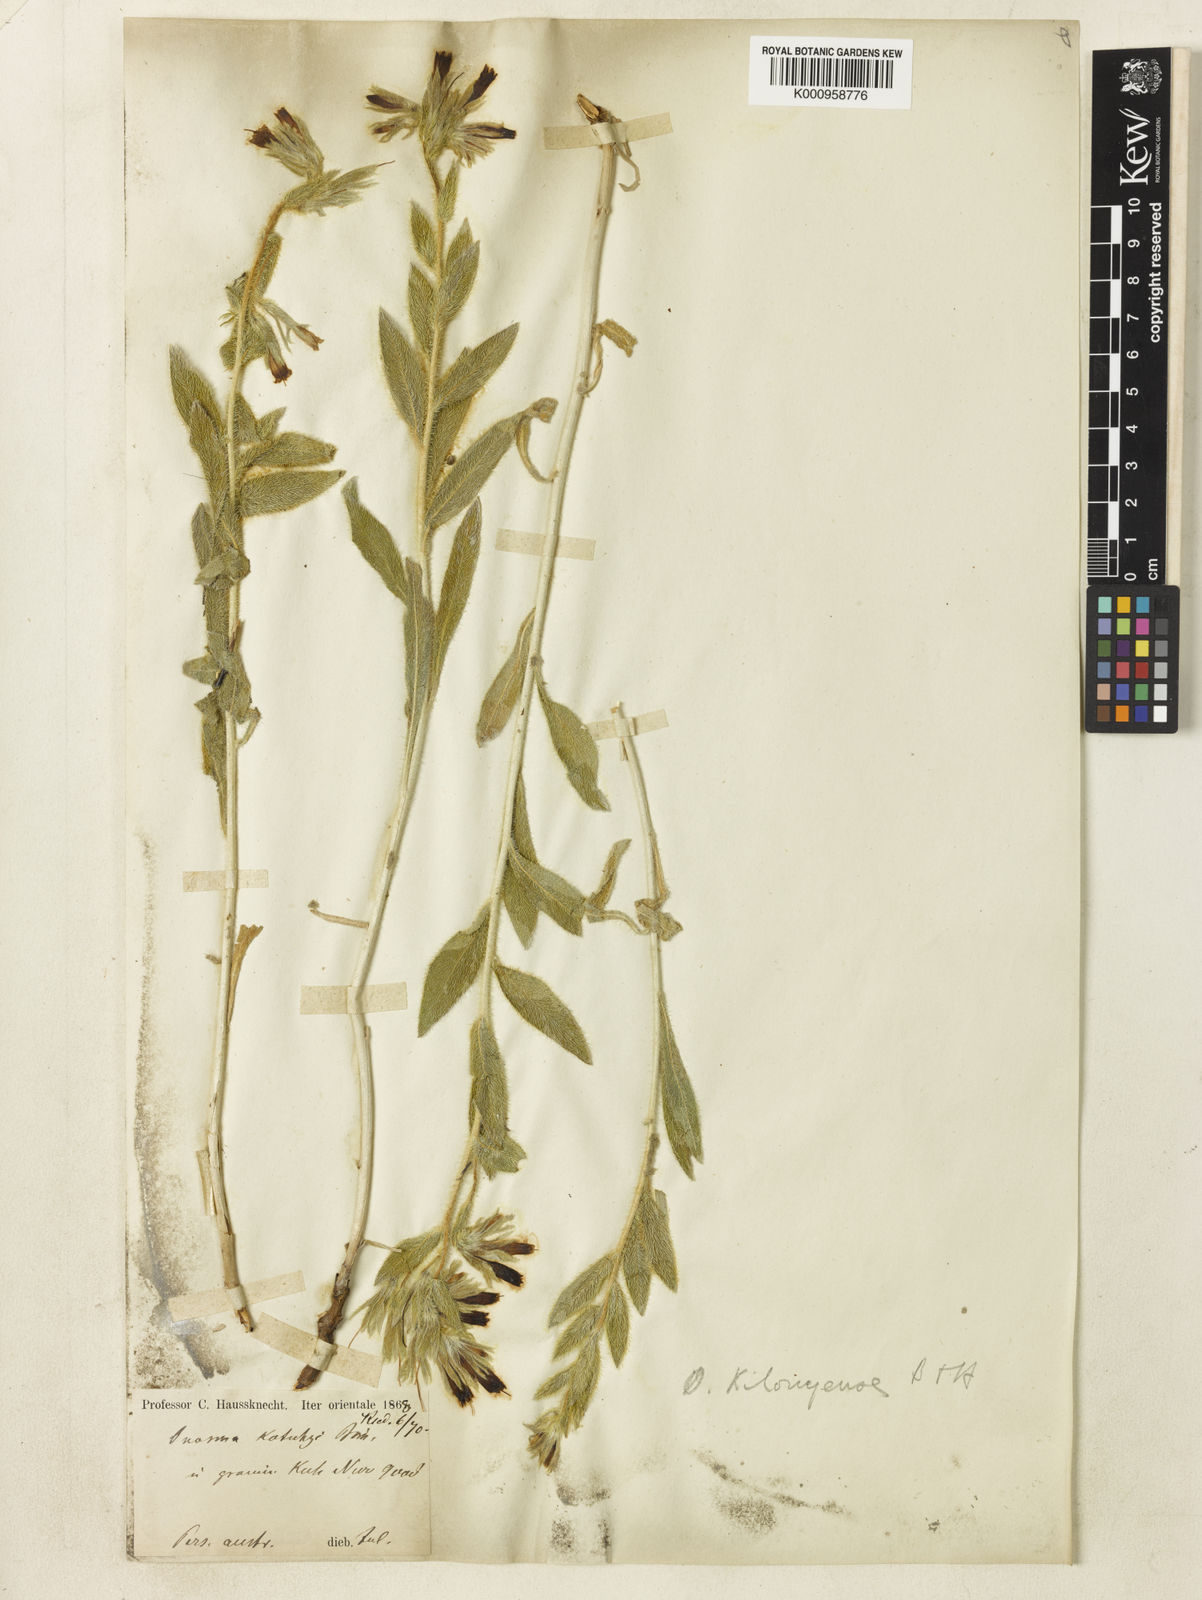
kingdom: Plantae
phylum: Tracheophyta
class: Magnoliopsida
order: Boraginales
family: Boraginaceae
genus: Onosma
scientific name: Onosma kilouyensis
